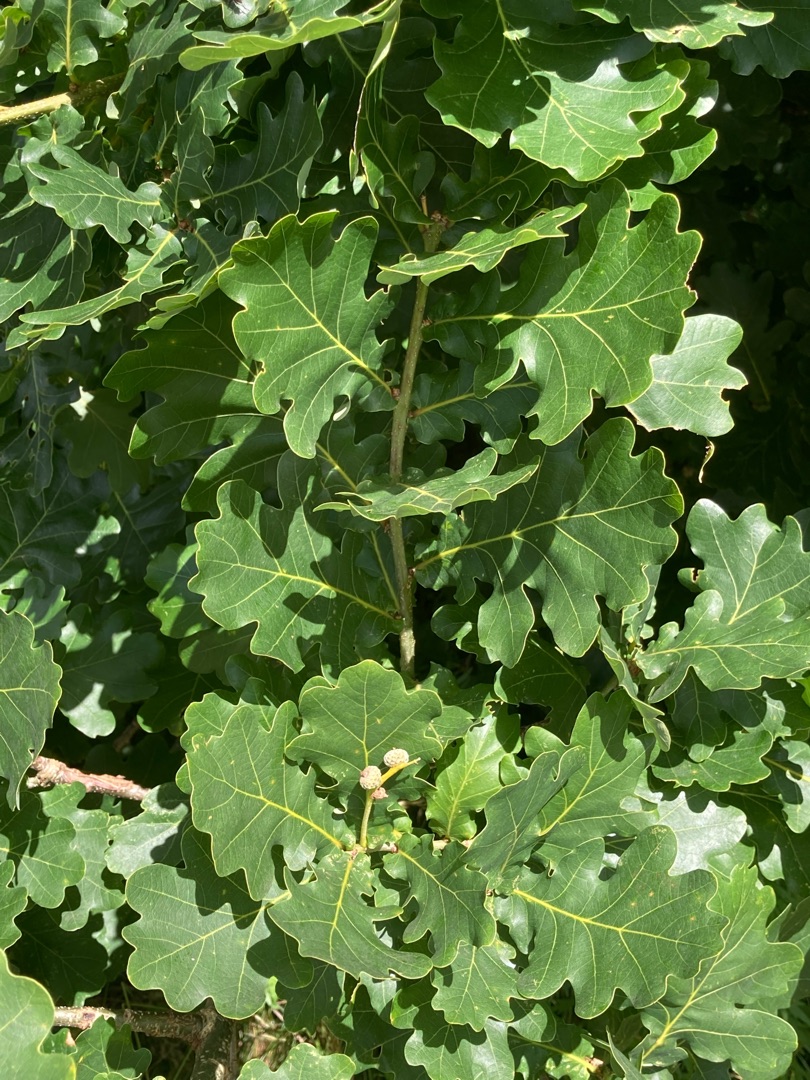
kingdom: Plantae
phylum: Tracheophyta
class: Magnoliopsida
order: Fagales
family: Fagaceae
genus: Quercus
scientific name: Quercus robur
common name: Stilk-eg/almindelig eg
